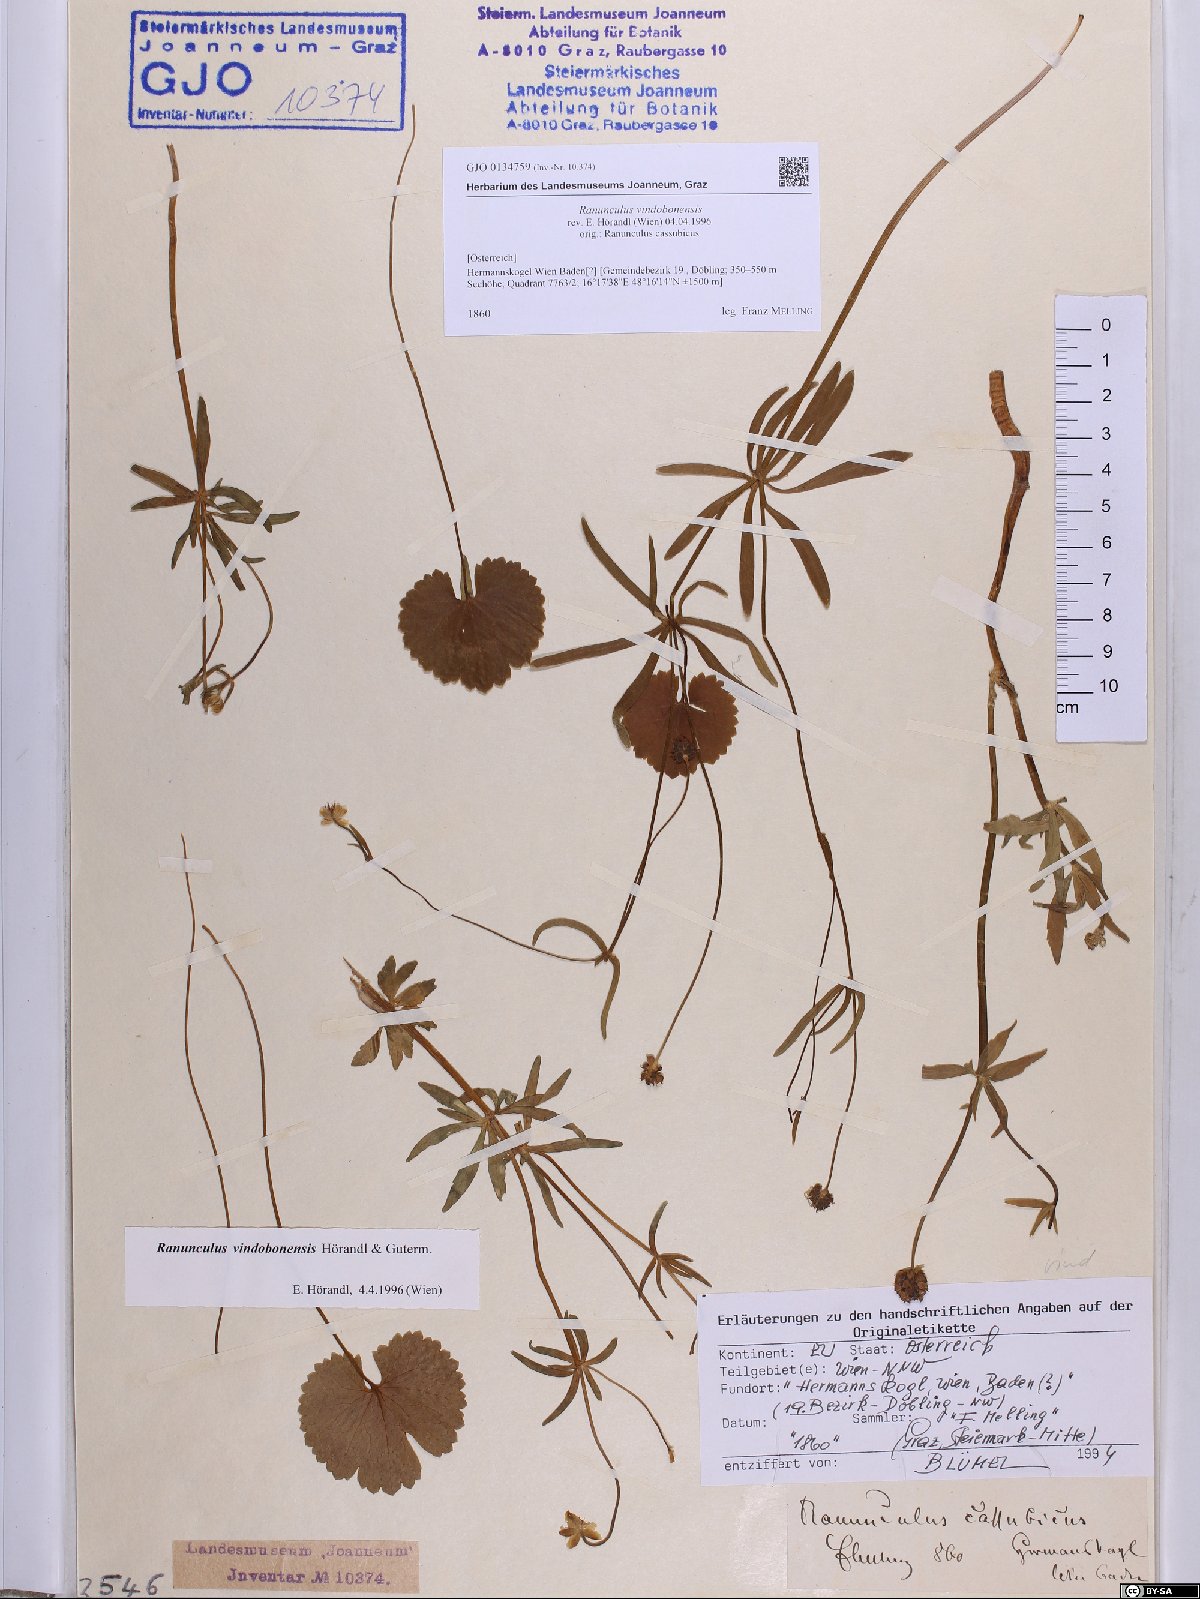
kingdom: Plantae
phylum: Tracheophyta
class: Magnoliopsida
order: Ranunculales
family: Ranunculaceae
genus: Ranunculus
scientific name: Ranunculus vindobonensis
